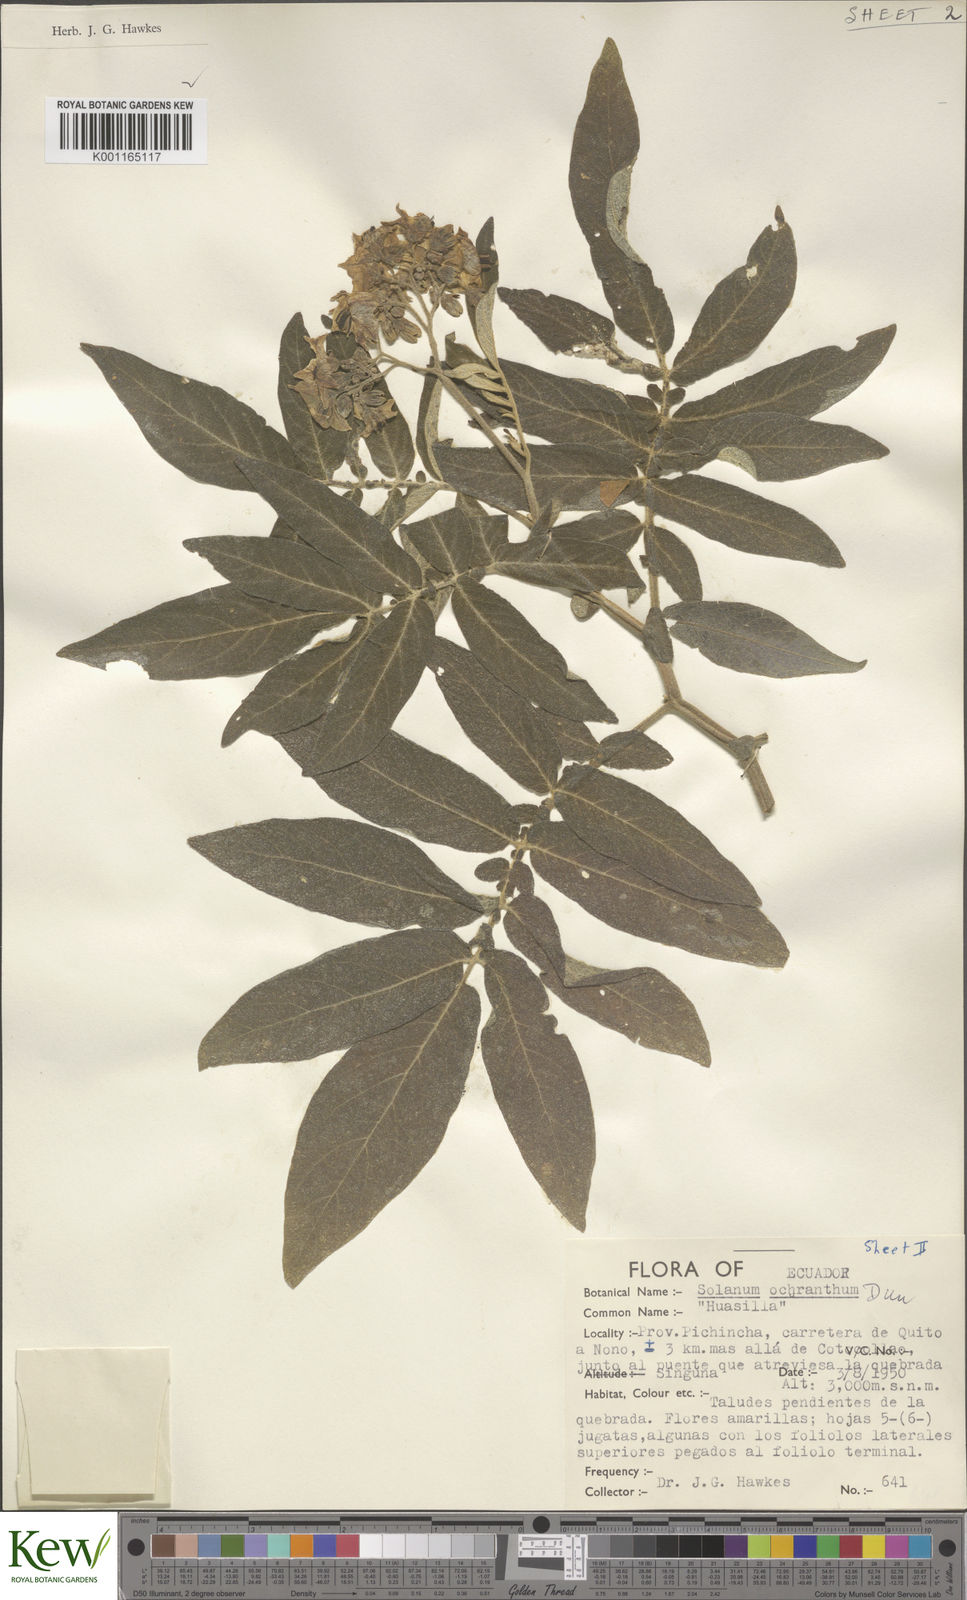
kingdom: Plantae
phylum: Tracheophyta
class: Magnoliopsida
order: Solanales
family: Solanaceae
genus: Solanum
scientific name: Solanum ochranthum
